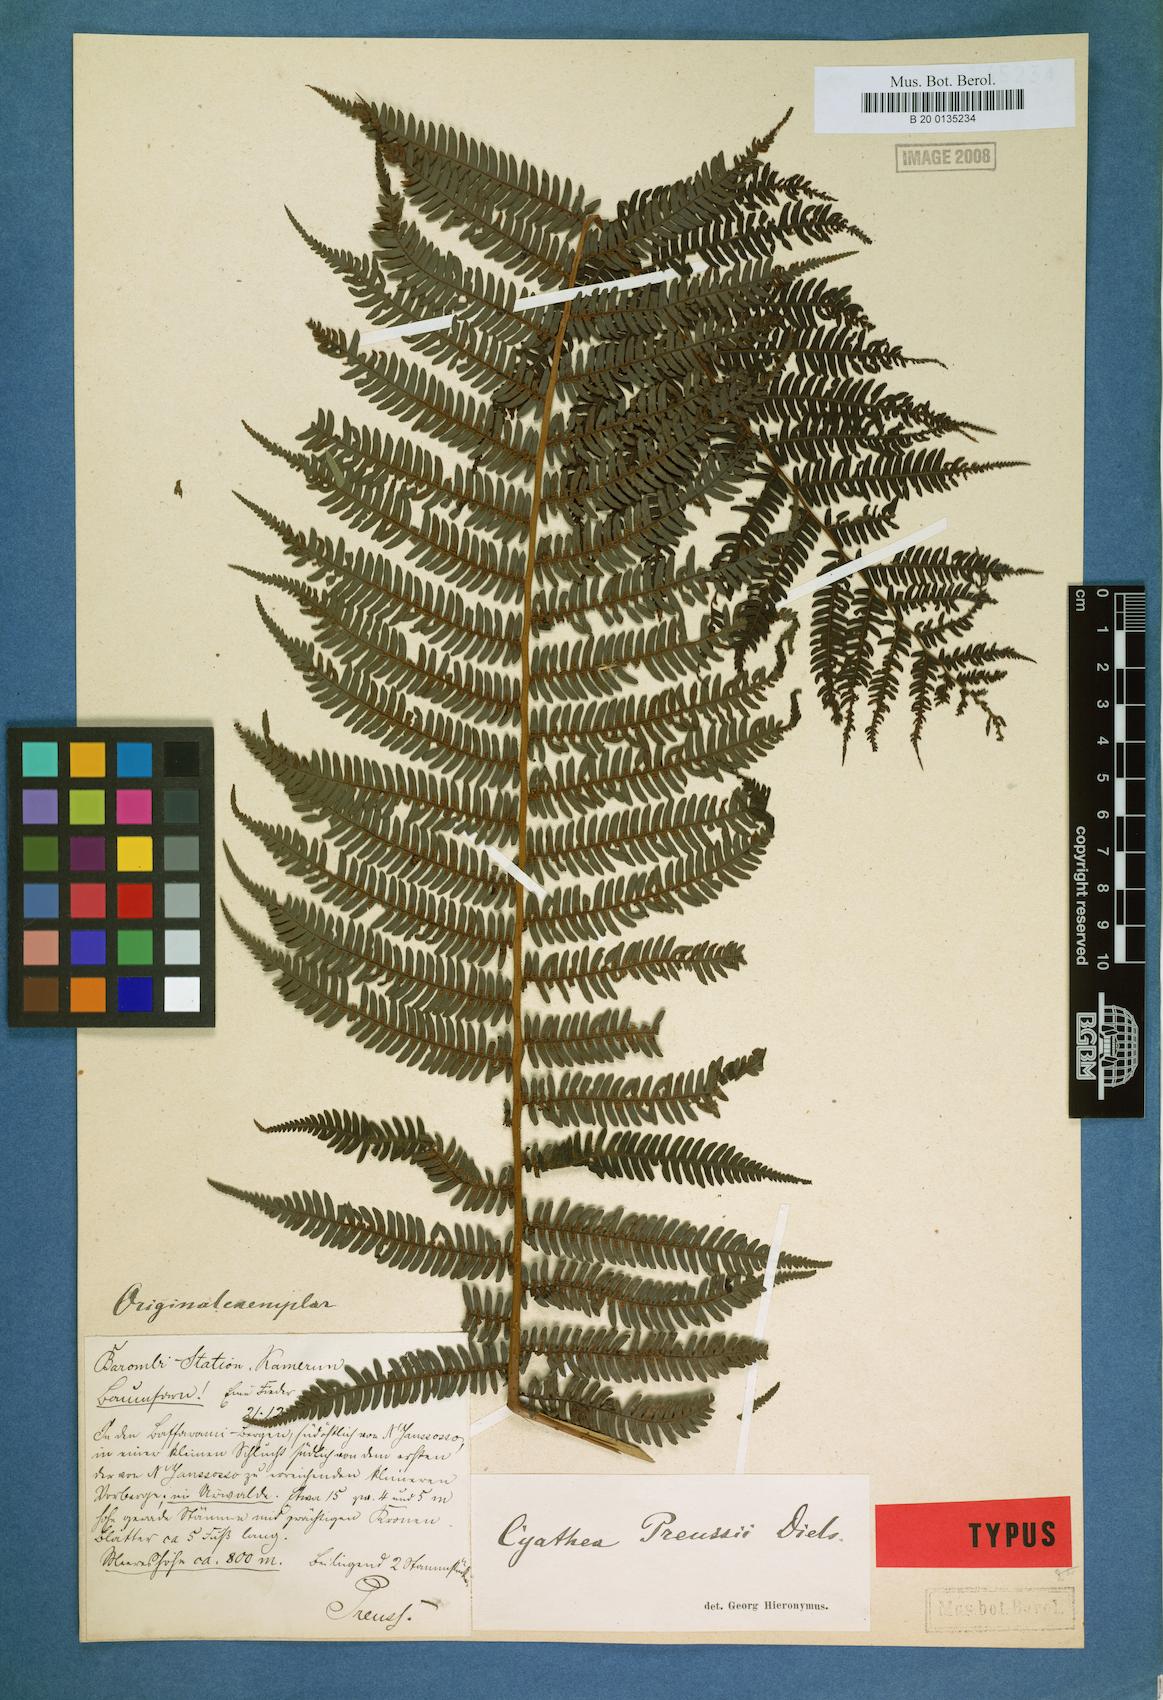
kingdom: Plantae
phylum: Tracheophyta
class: Polypodiopsida
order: Cyatheales
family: Cyatheaceae
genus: Alsophila
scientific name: Alsophila manniana
